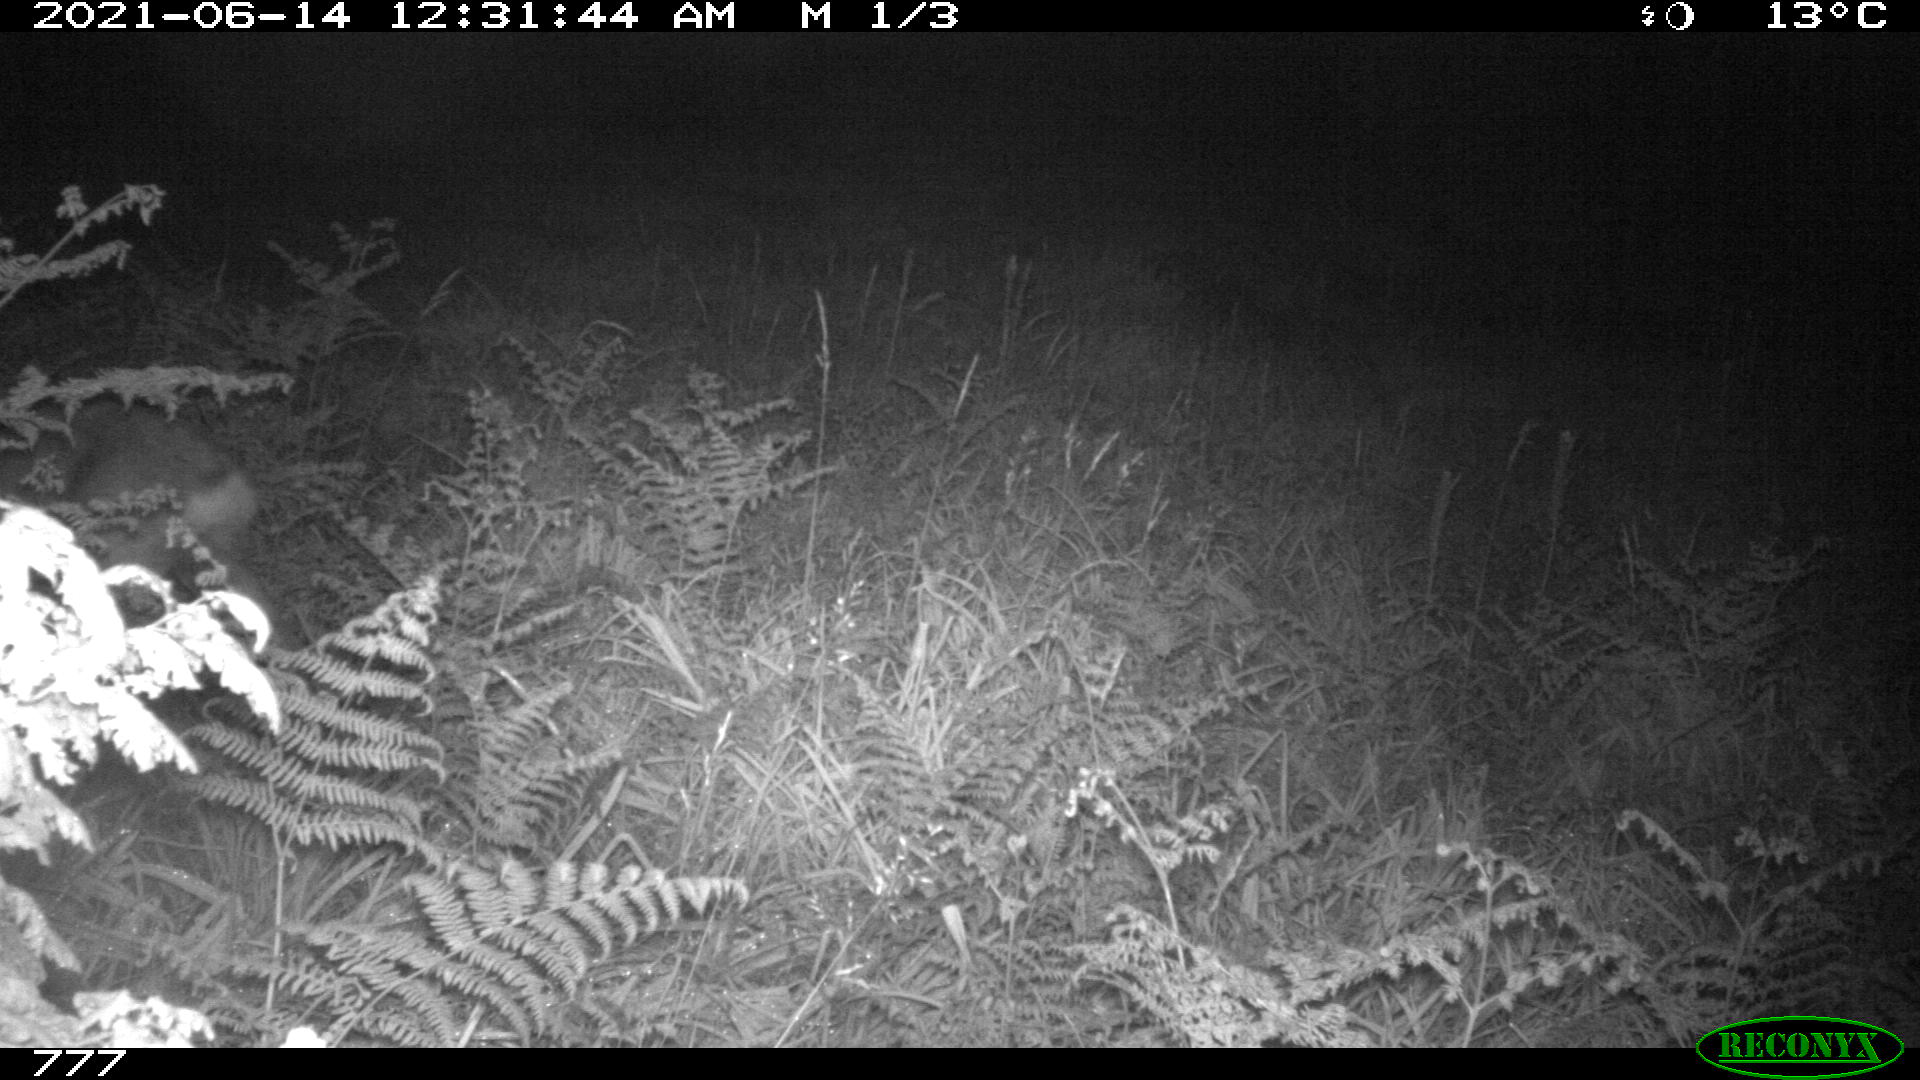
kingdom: Animalia
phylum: Chordata
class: Mammalia
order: Artiodactyla
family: Cervidae
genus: Capreolus
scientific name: Capreolus capreolus
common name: Western roe deer
